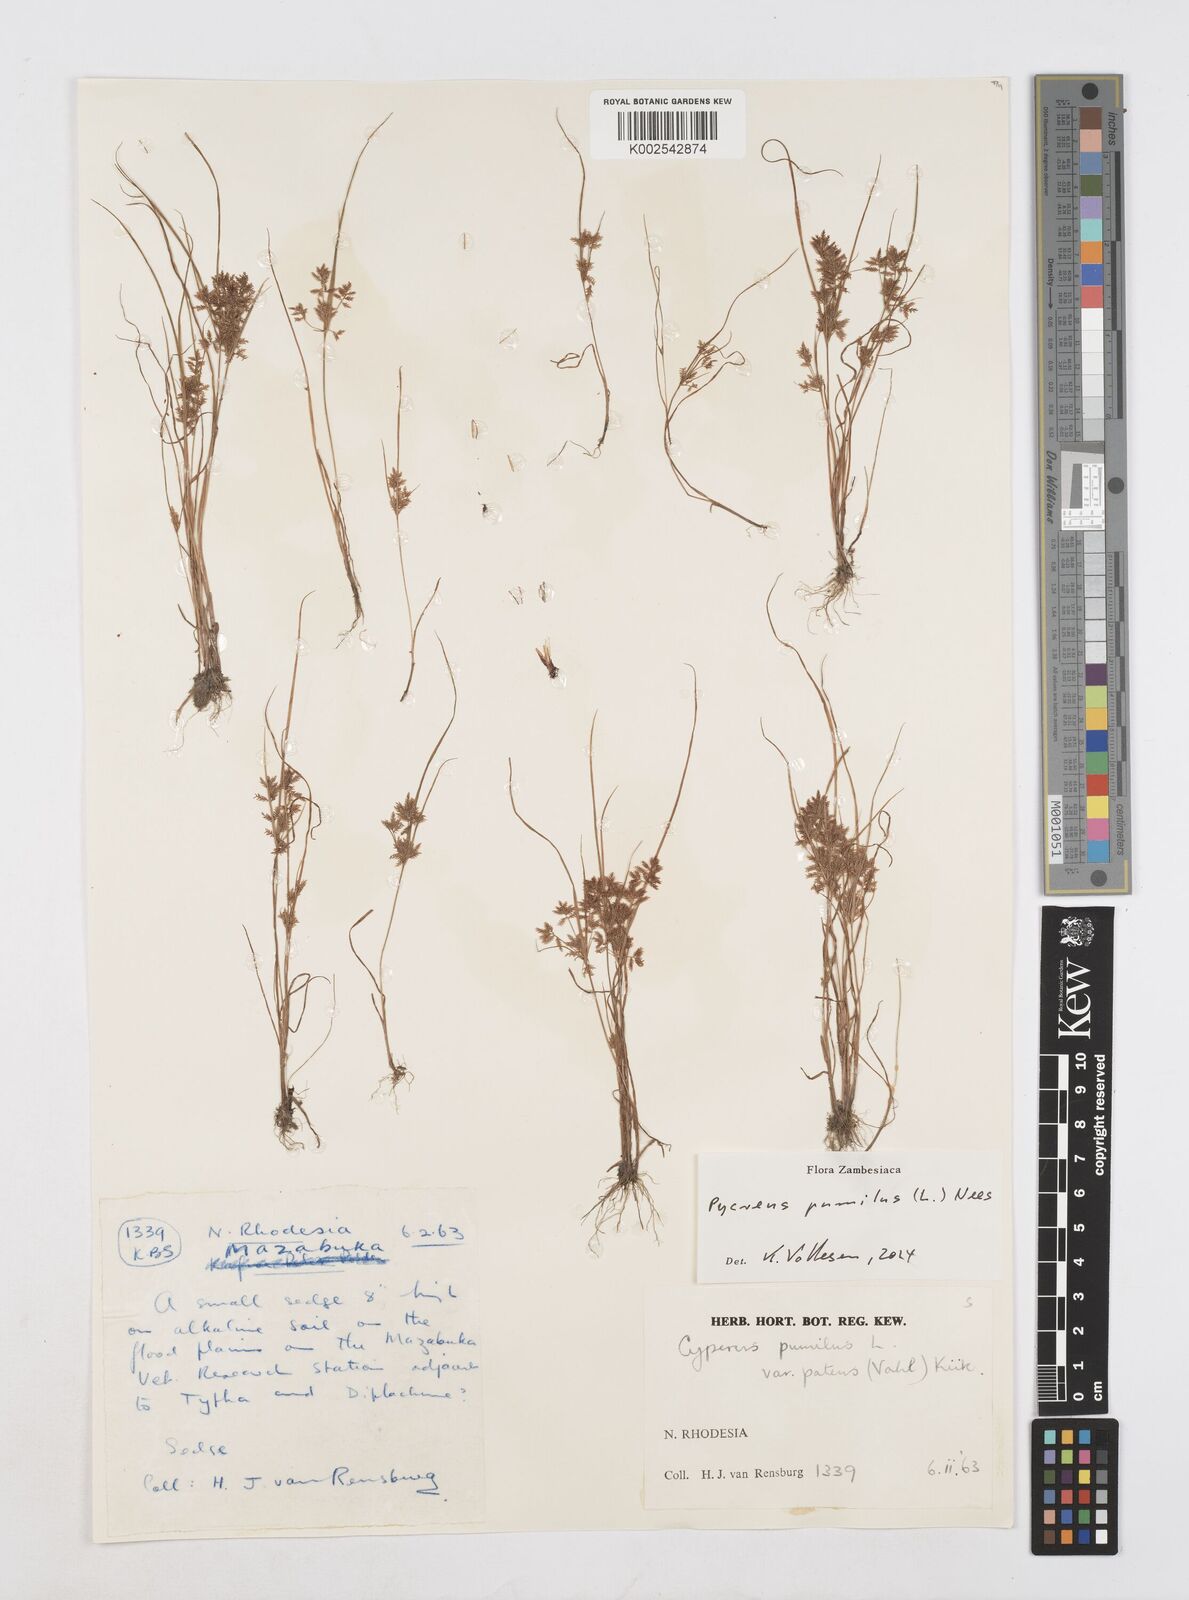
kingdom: Plantae
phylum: Tracheophyta
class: Liliopsida
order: Poales
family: Cyperaceae
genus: Cyperus
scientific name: Cyperus pumilus
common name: Low flatsedge
